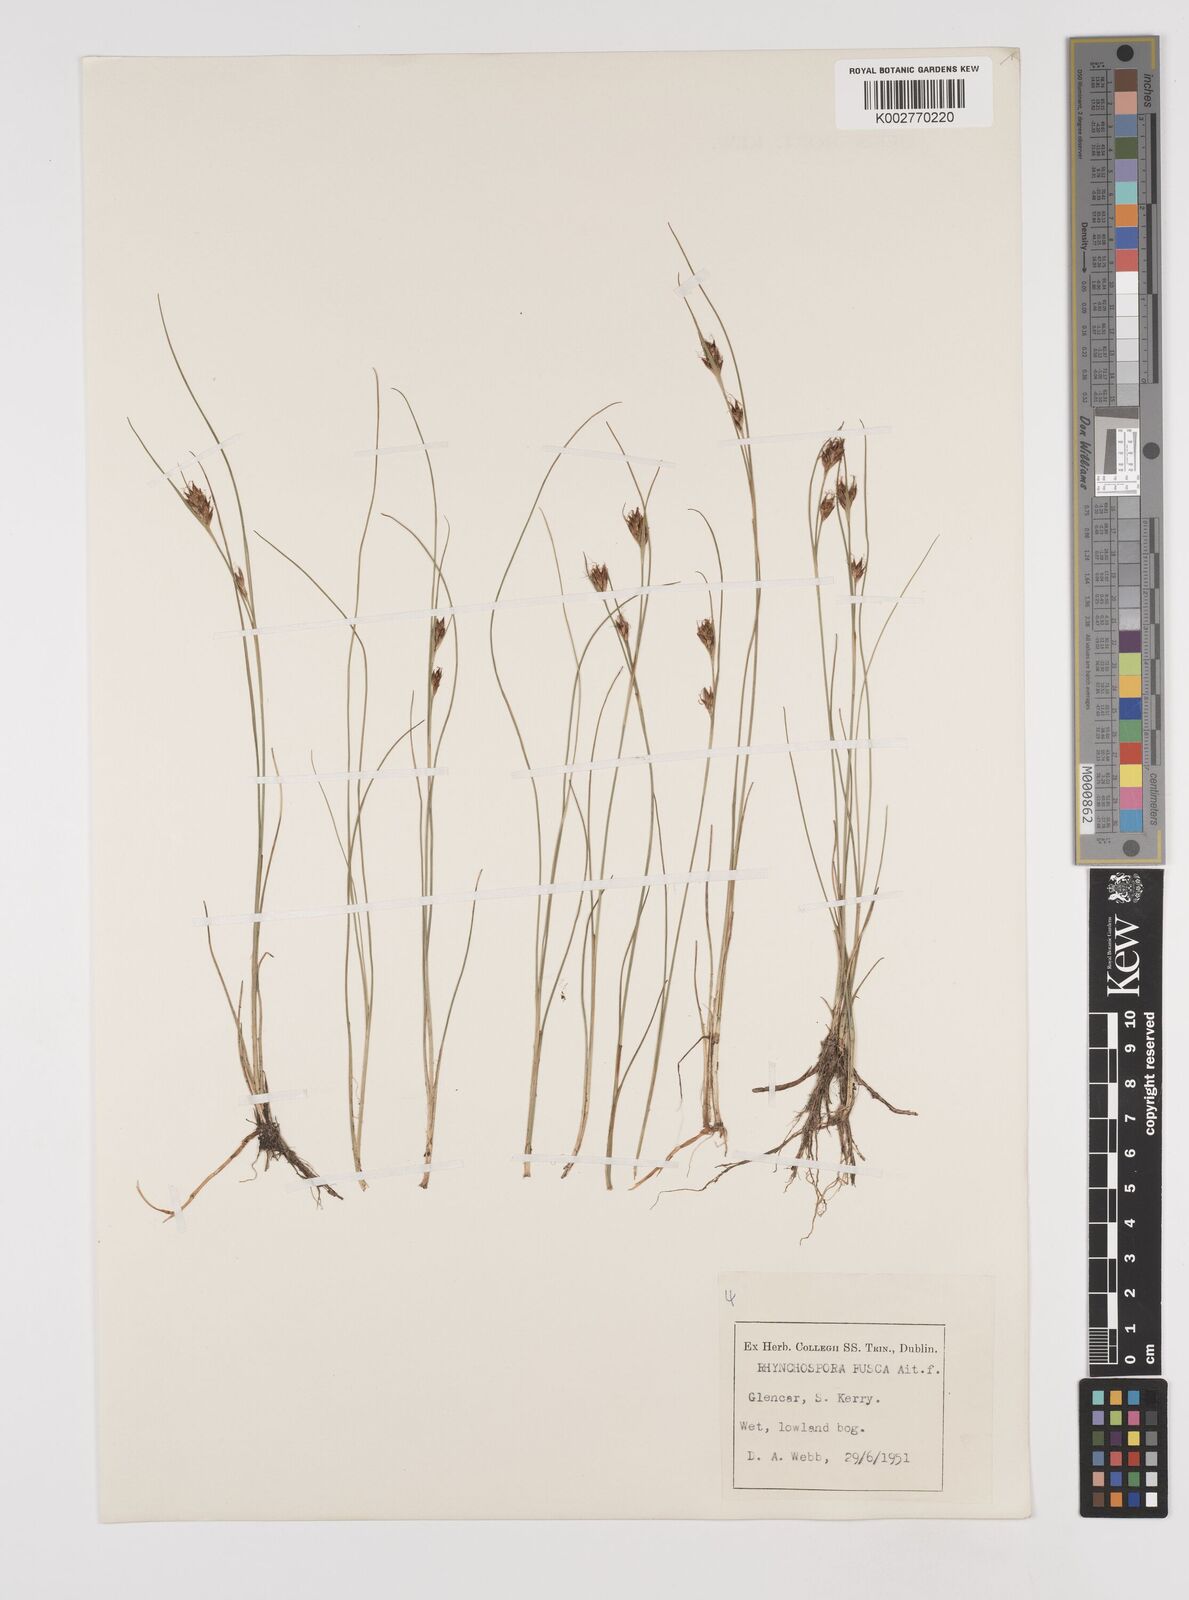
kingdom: Plantae
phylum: Tracheophyta
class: Liliopsida
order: Poales
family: Cyperaceae
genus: Rhynchospora
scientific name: Rhynchospora fusca
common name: Brown beak-sedge
